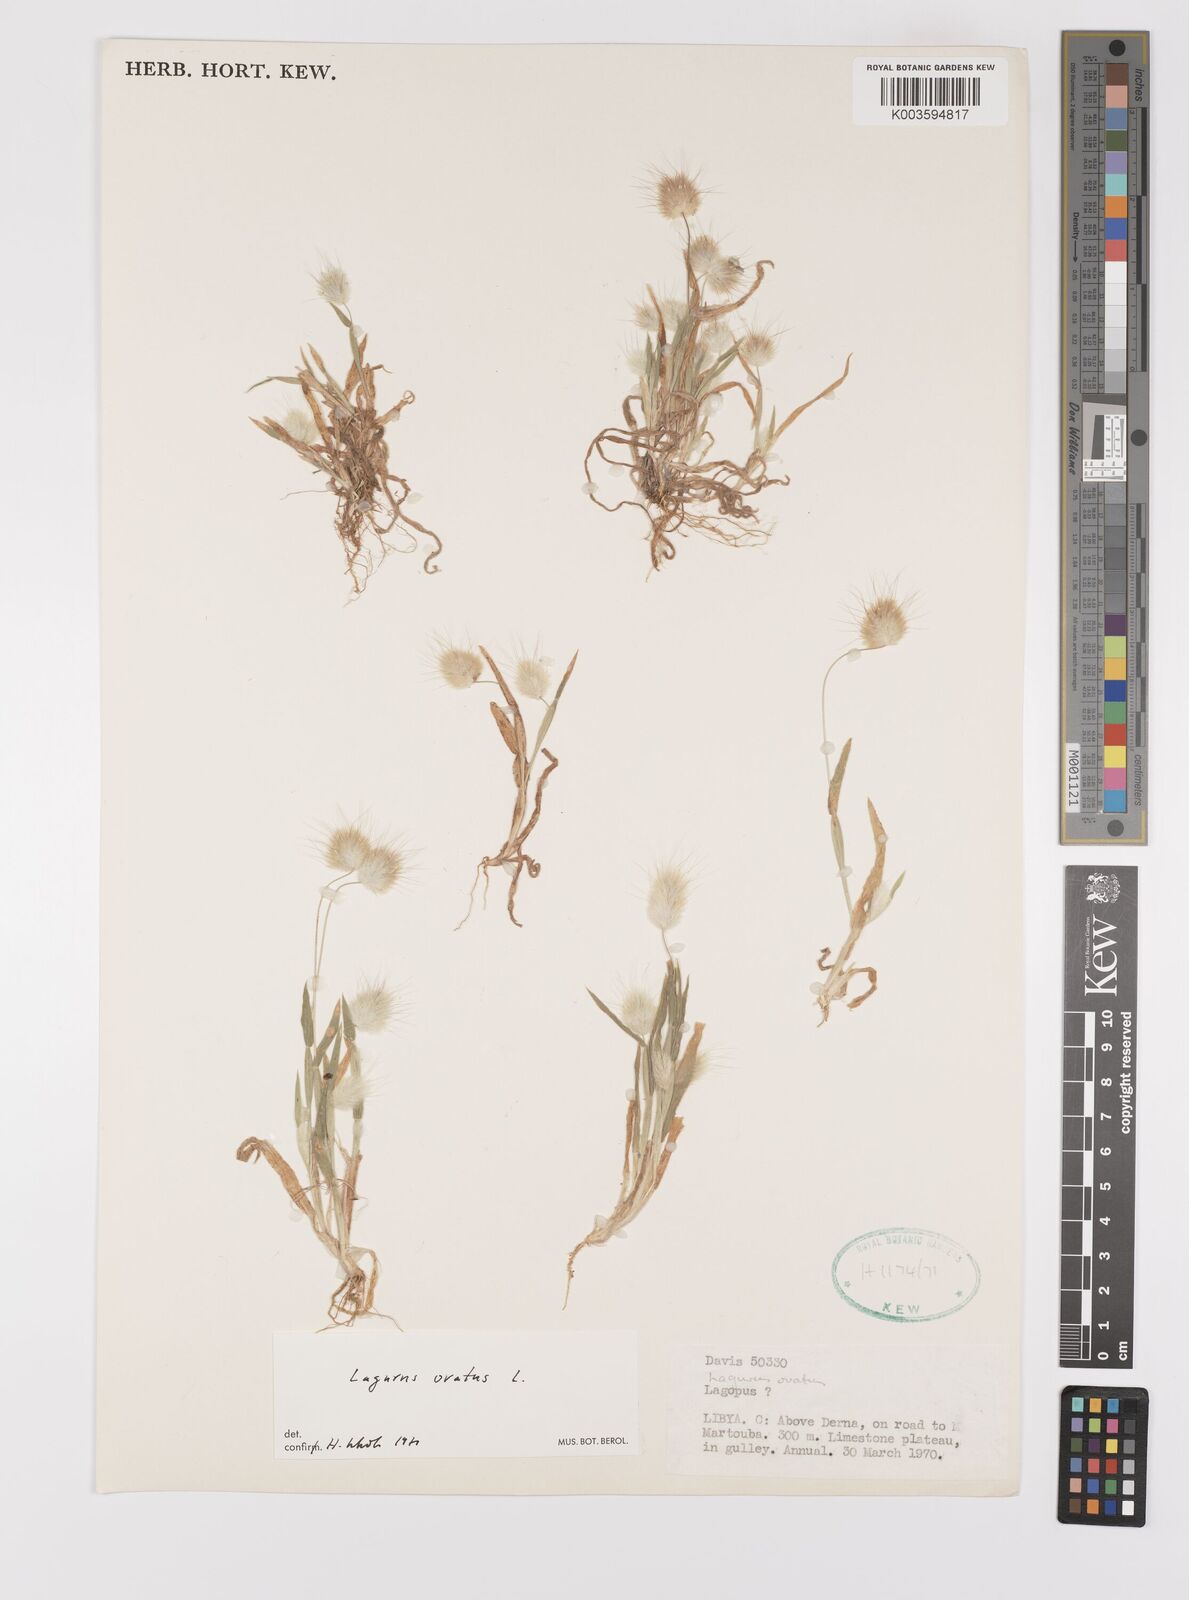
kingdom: Plantae
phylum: Tracheophyta
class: Liliopsida
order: Poales
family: Poaceae
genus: Lagurus
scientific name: Lagurus ovatus
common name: Hare's-tail
